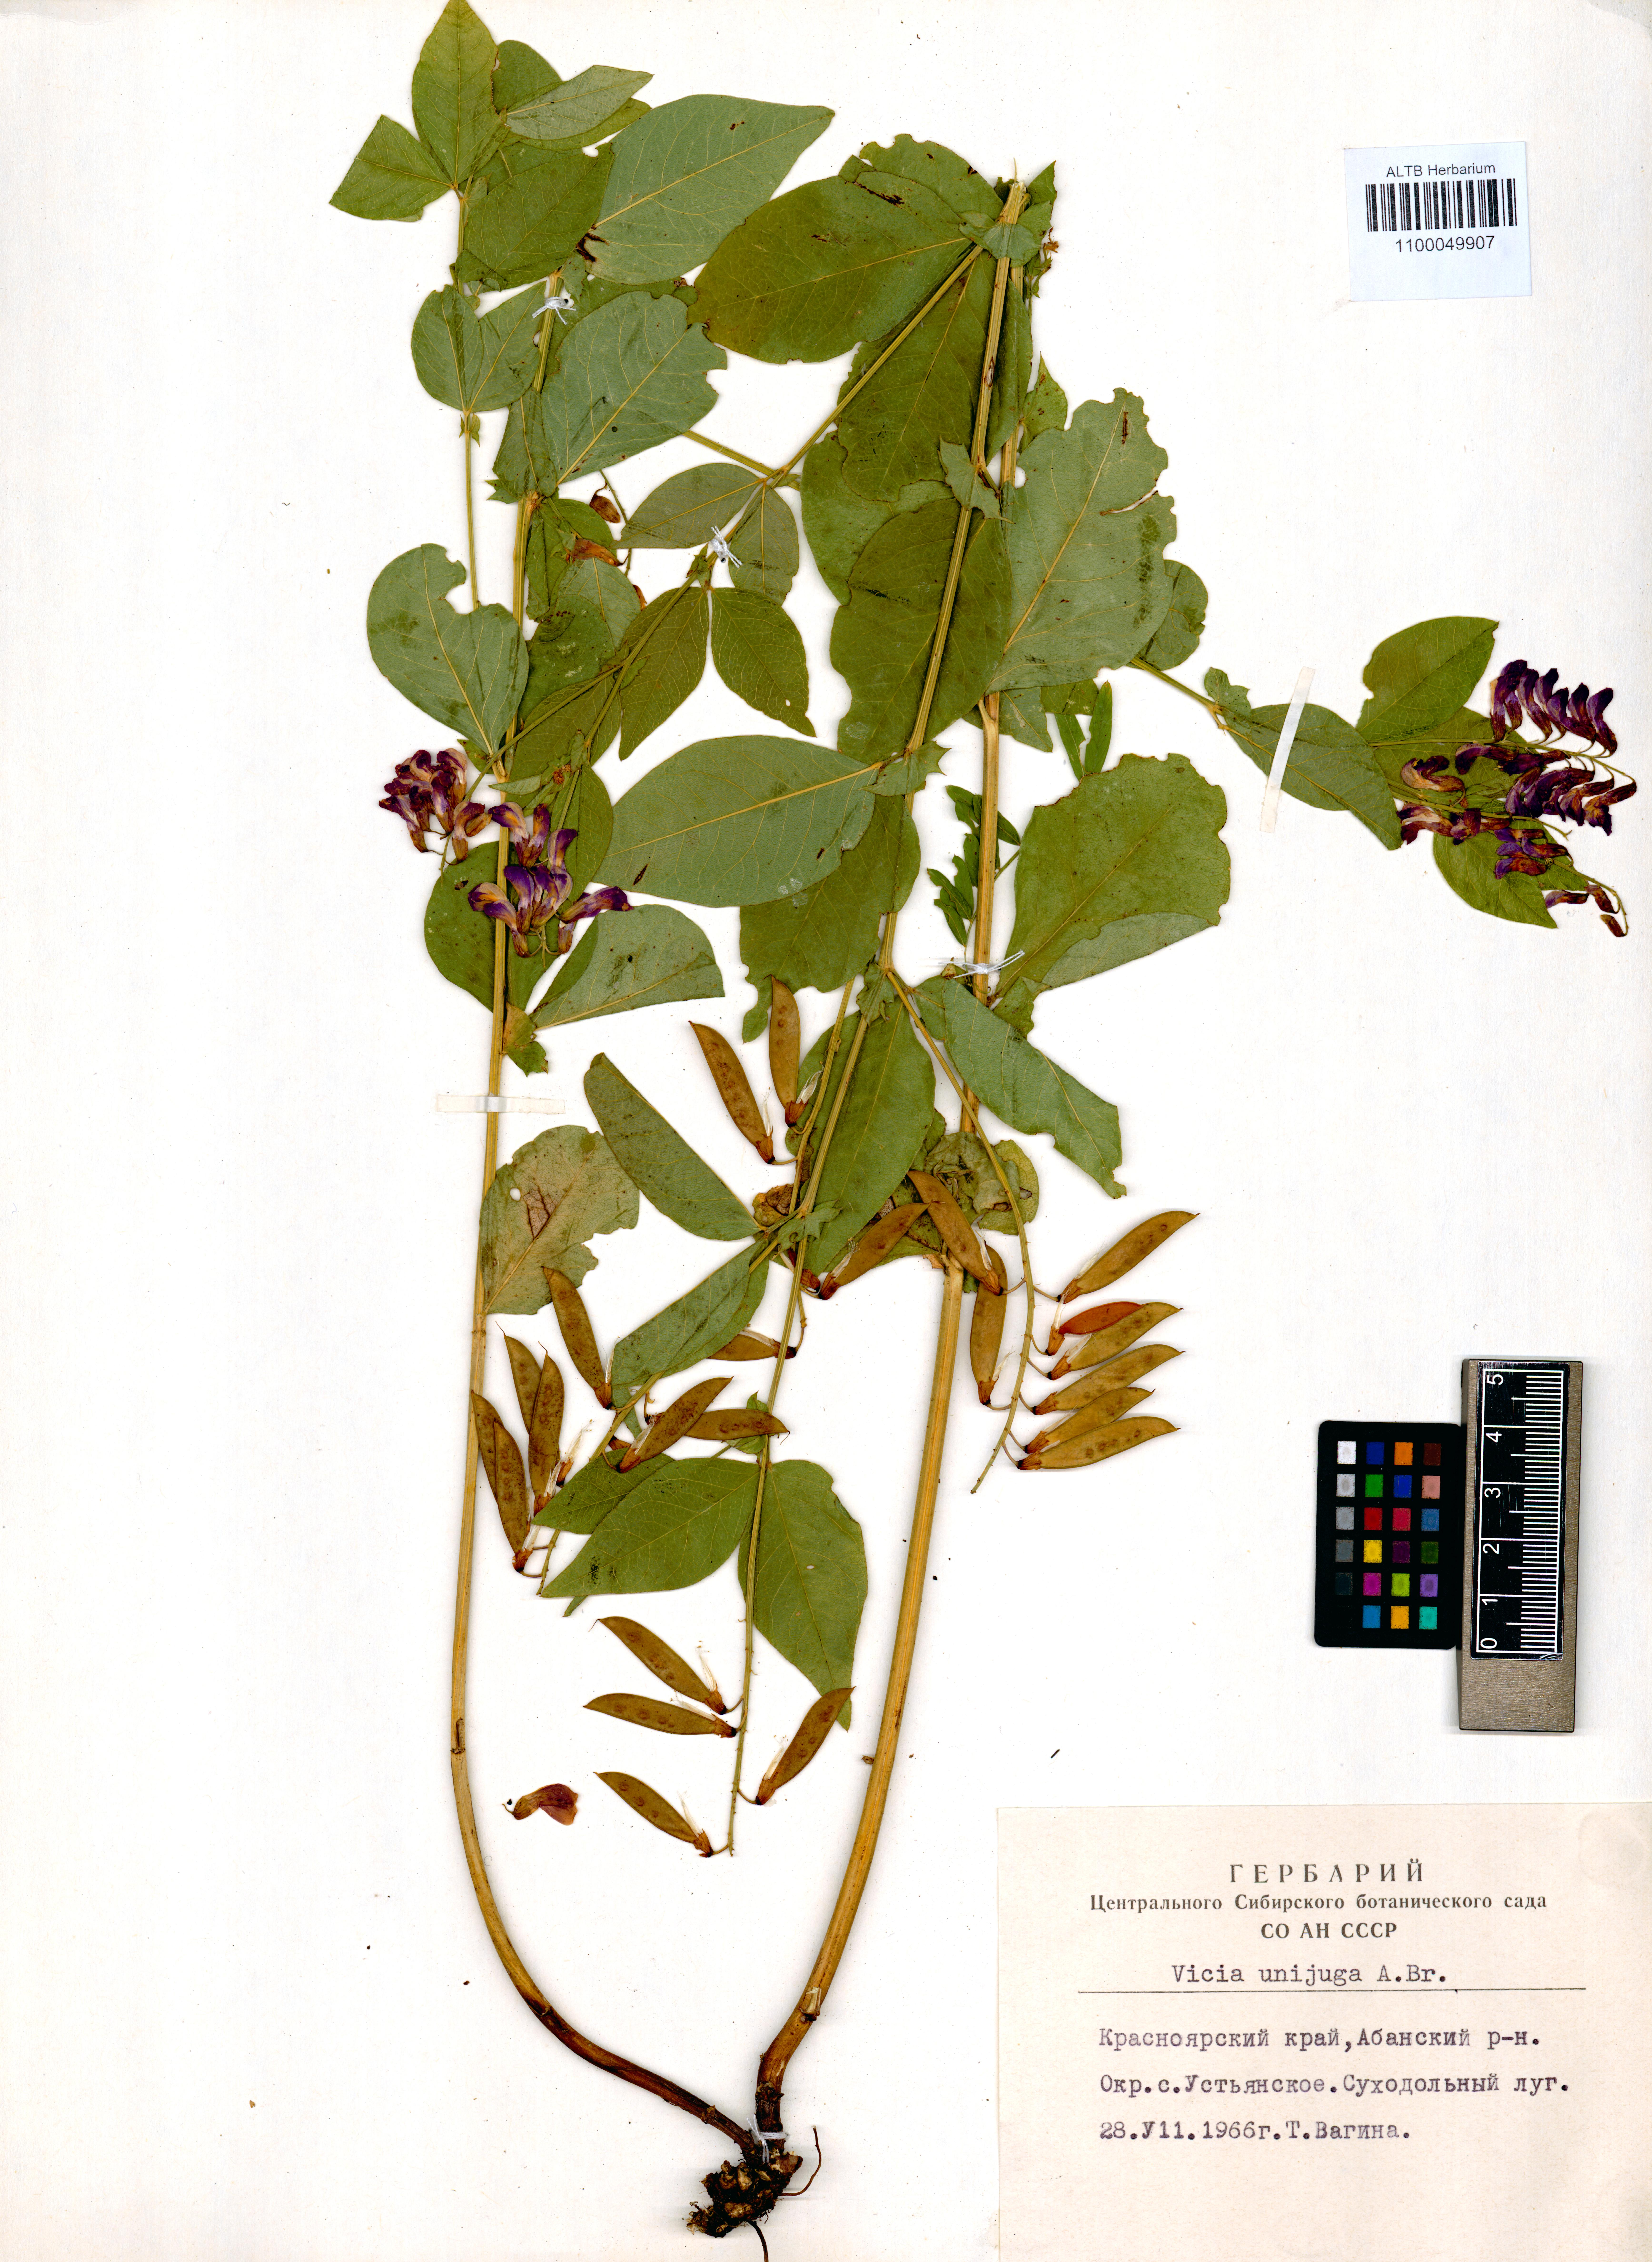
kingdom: Plantae
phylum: Tracheophyta
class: Magnoliopsida
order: Fabales
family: Fabaceae
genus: Vicia
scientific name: Vicia unijuga
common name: Two-leaf vetch
